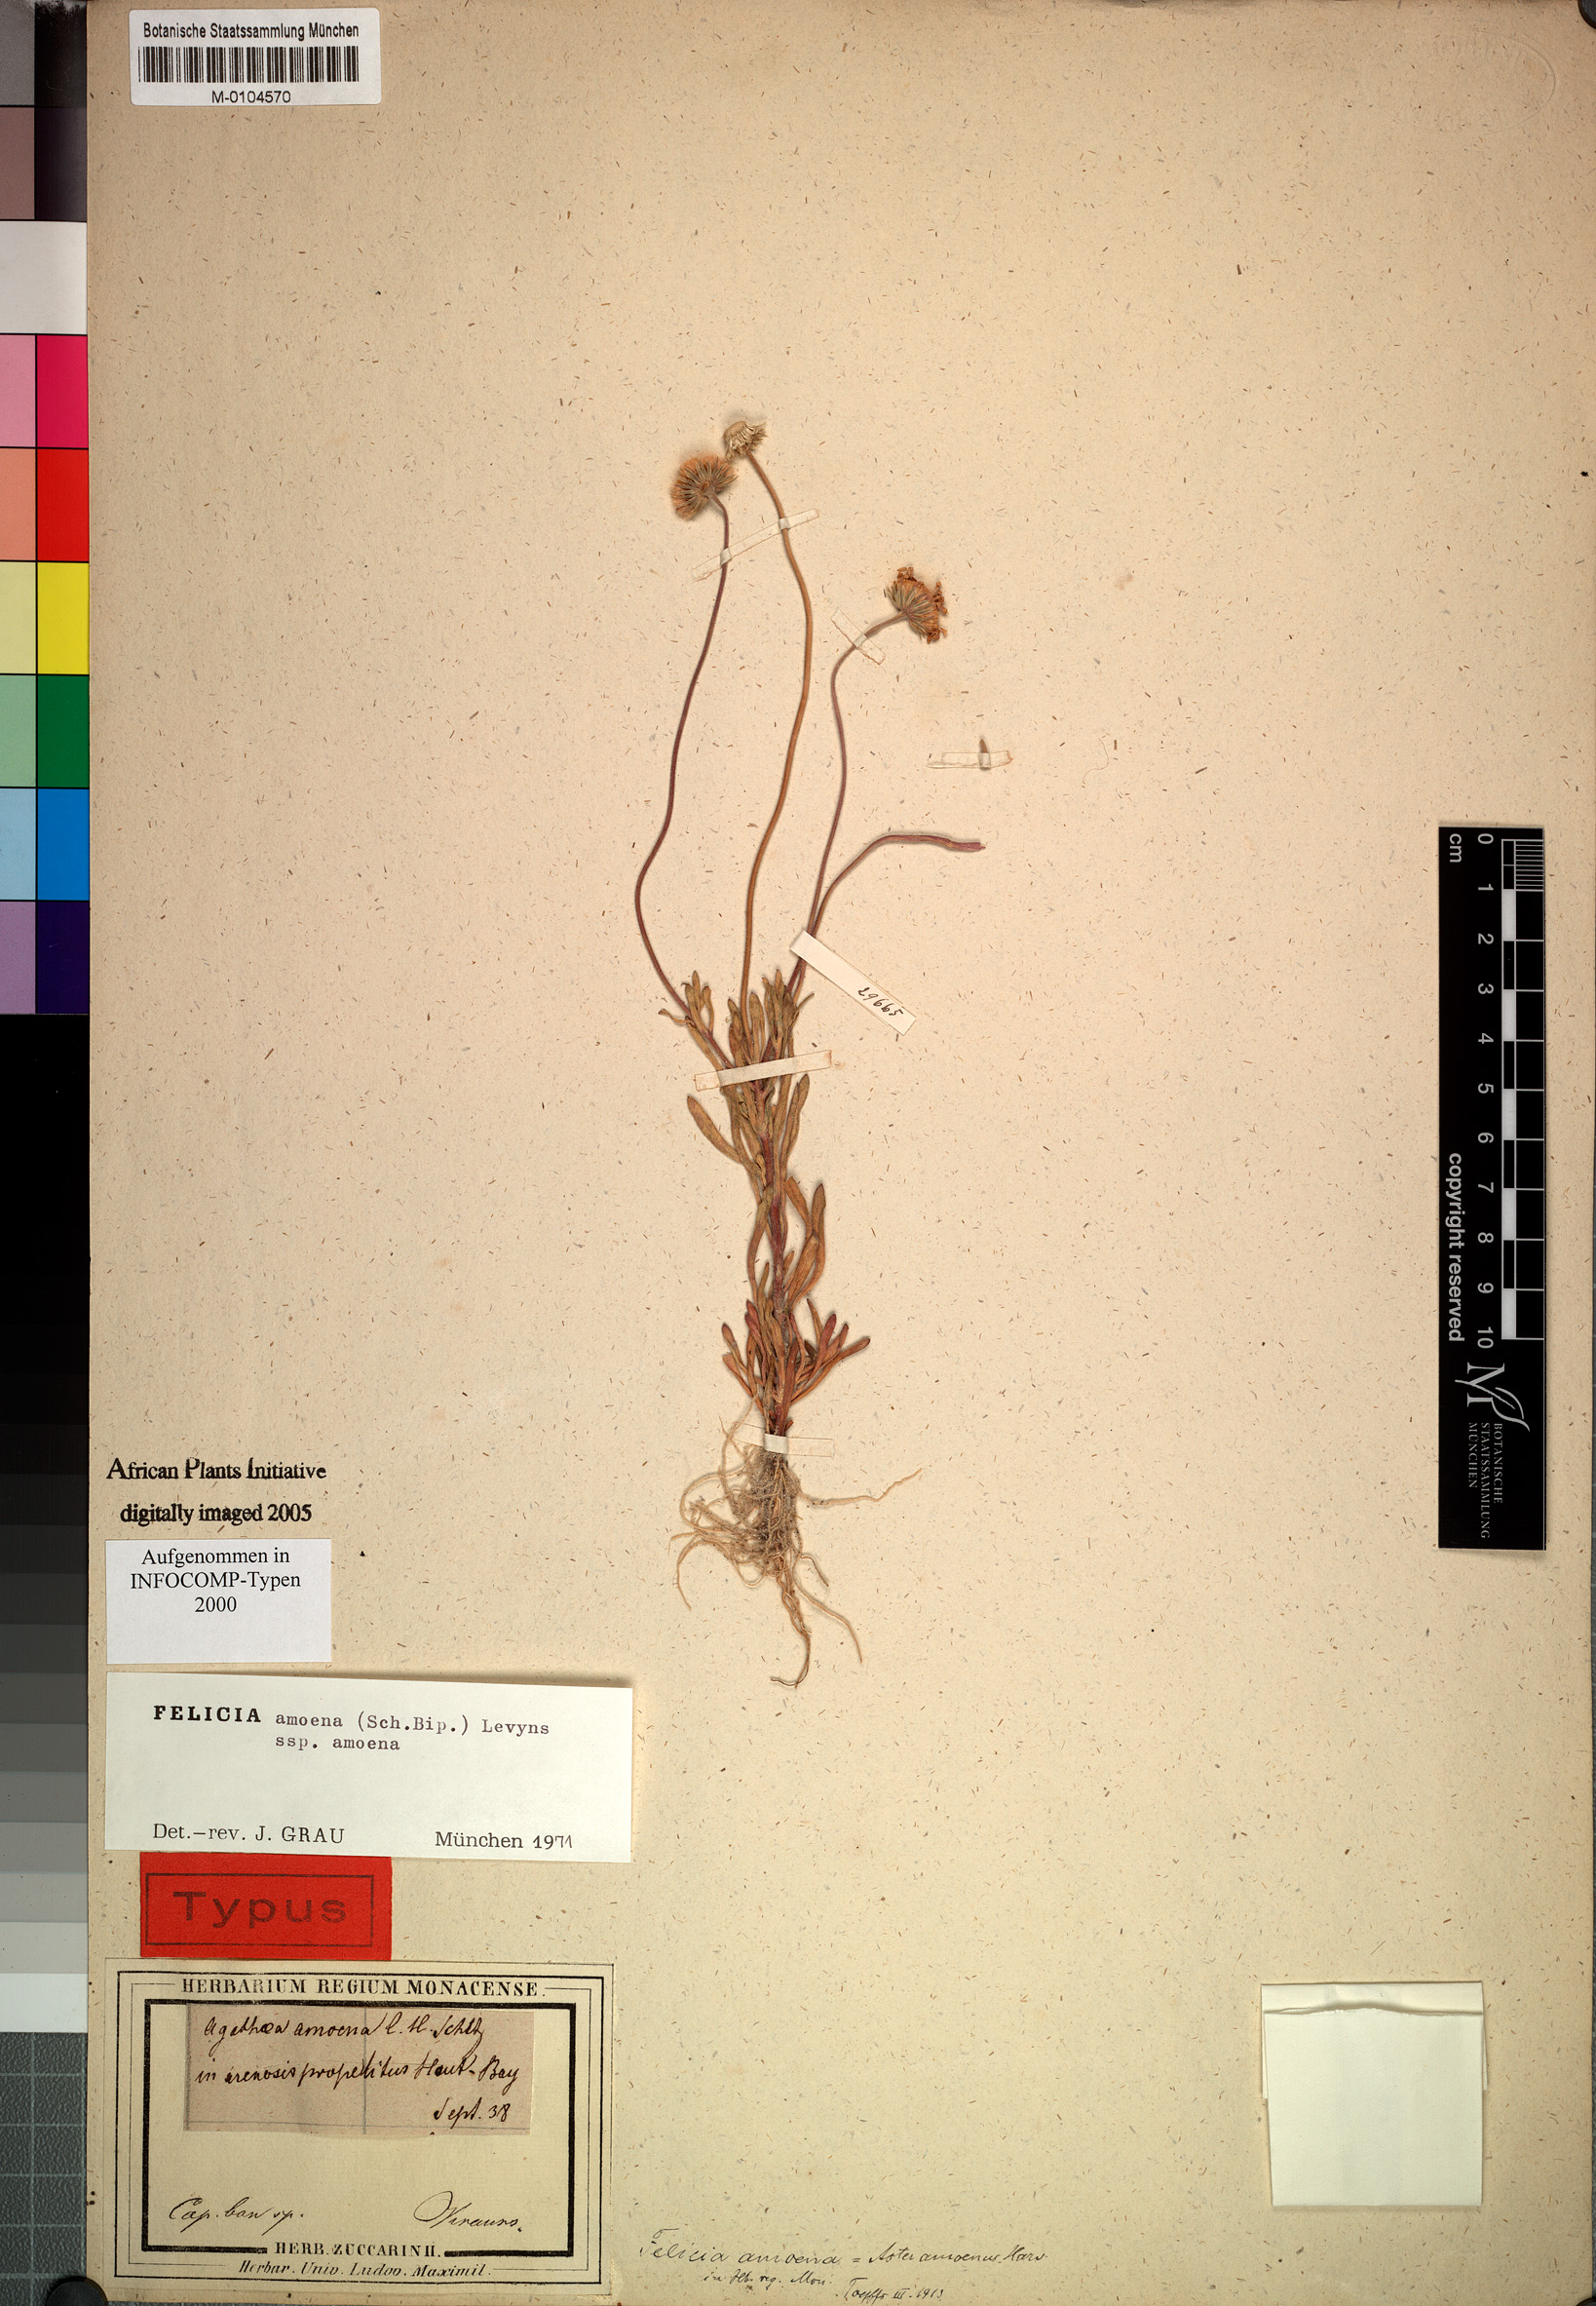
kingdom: Plantae
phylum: Tracheophyta
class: Magnoliopsida
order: Asterales
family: Asteraceae
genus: Felicia
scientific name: Felicia amoena
